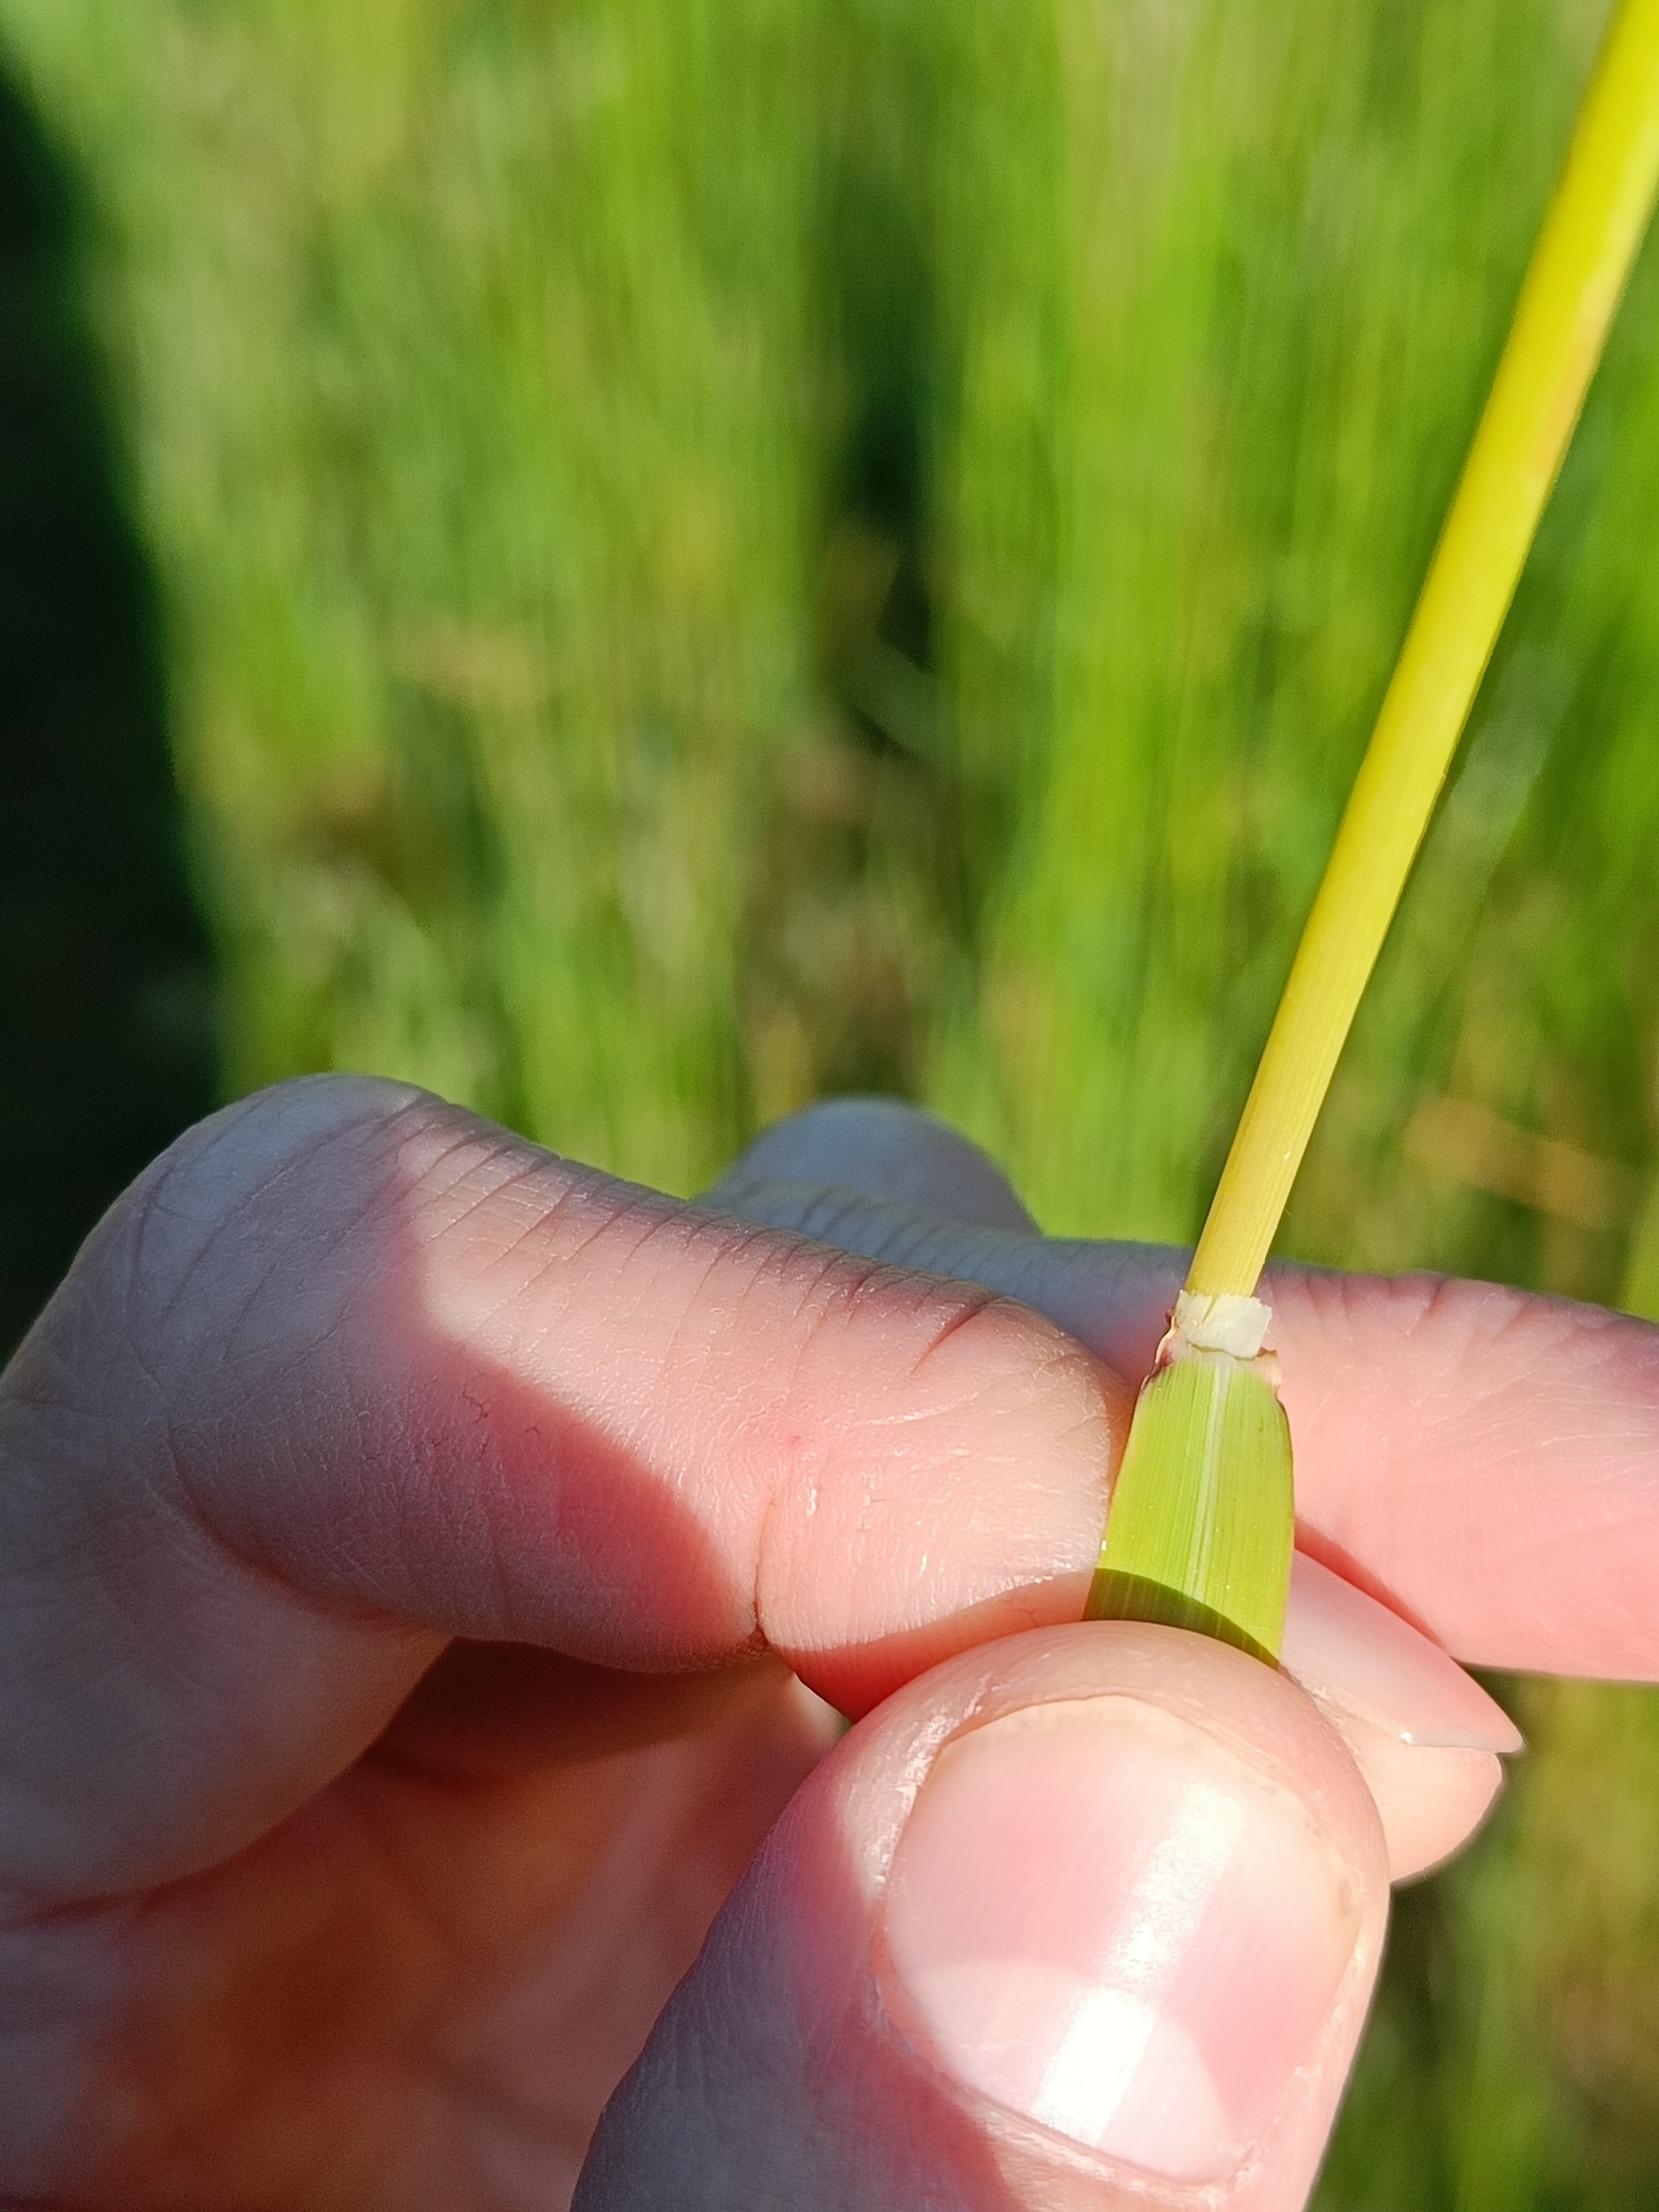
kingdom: Plantae
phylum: Tracheophyta
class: Liliopsida
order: Poales
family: Poaceae
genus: Arrhenatherum
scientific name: Arrhenatherum elatius
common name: Draphavre
